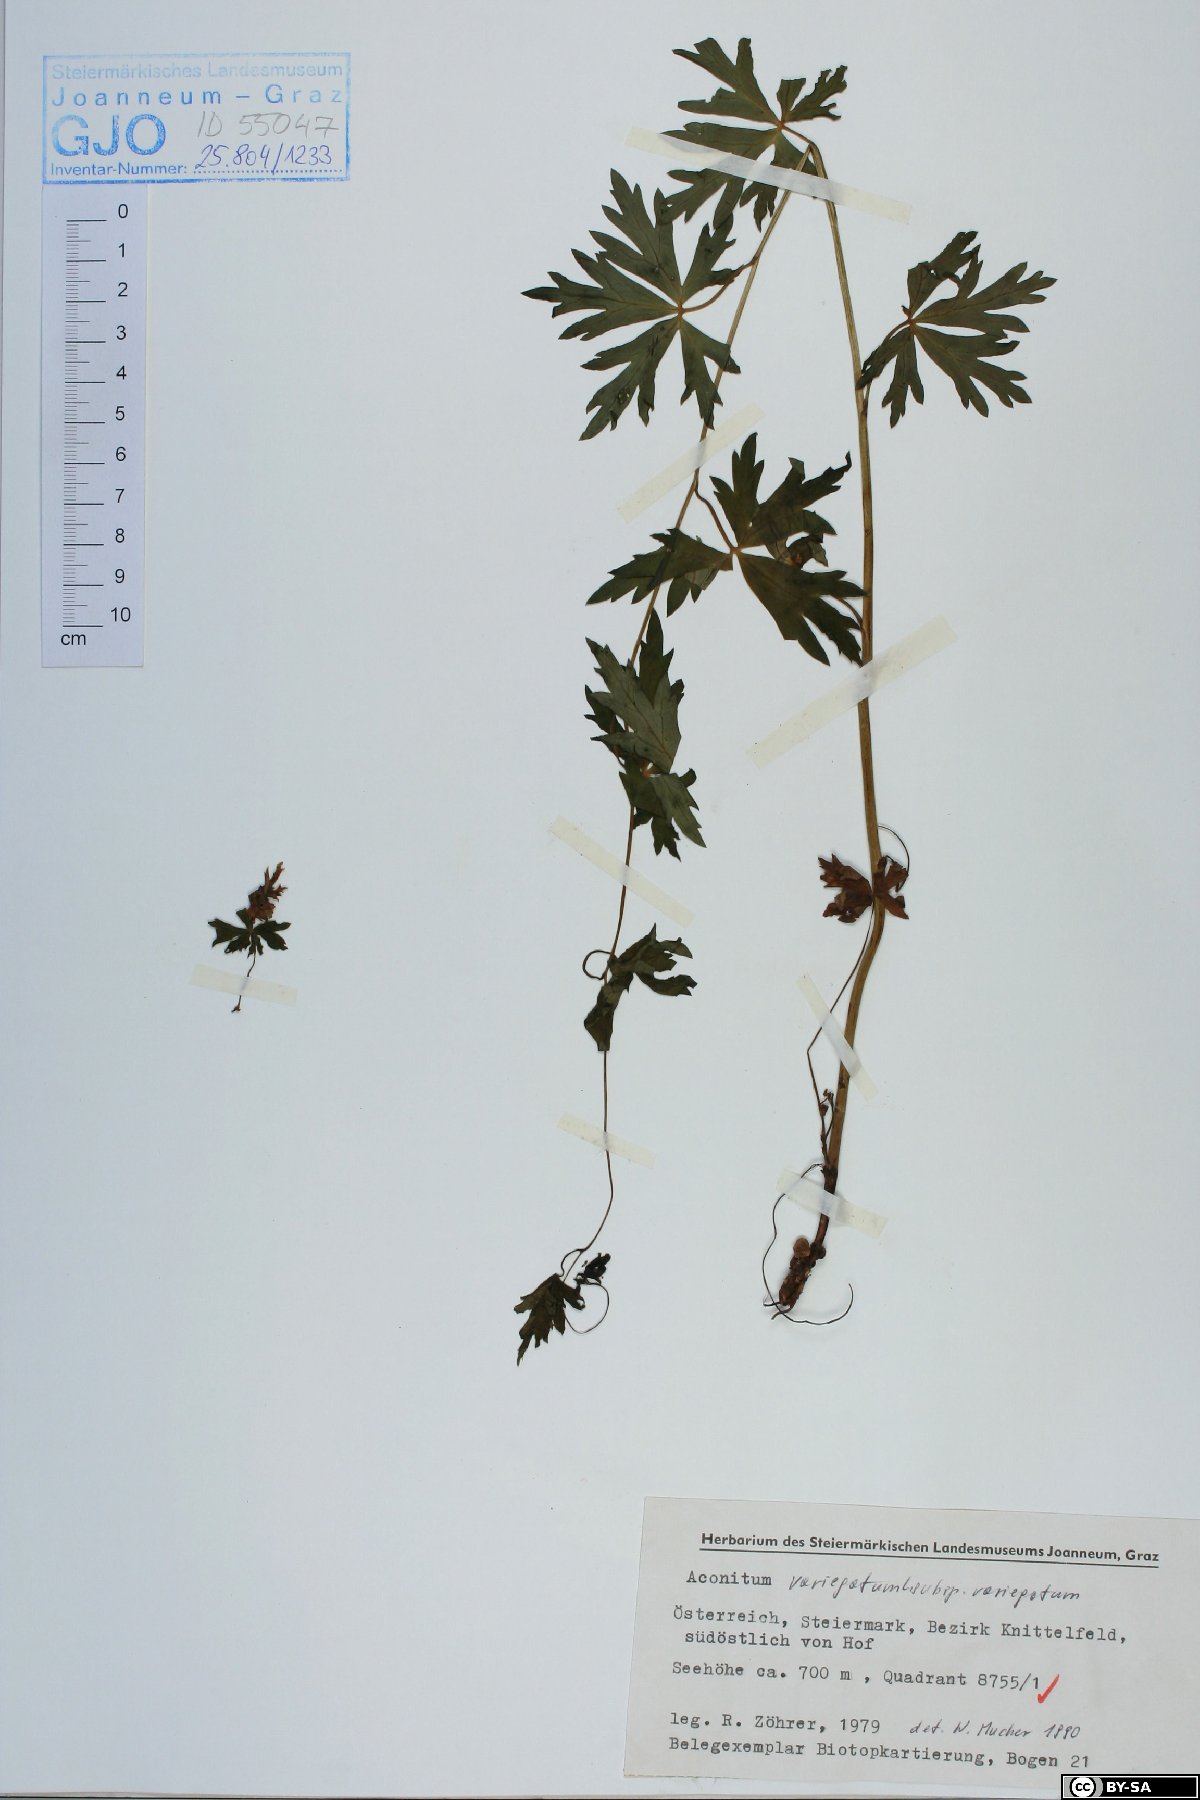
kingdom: Plantae
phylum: Tracheophyta
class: Magnoliopsida
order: Ranunculales
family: Ranunculaceae
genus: Aconitum
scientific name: Aconitum variegatum
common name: Manchurian monkshood
